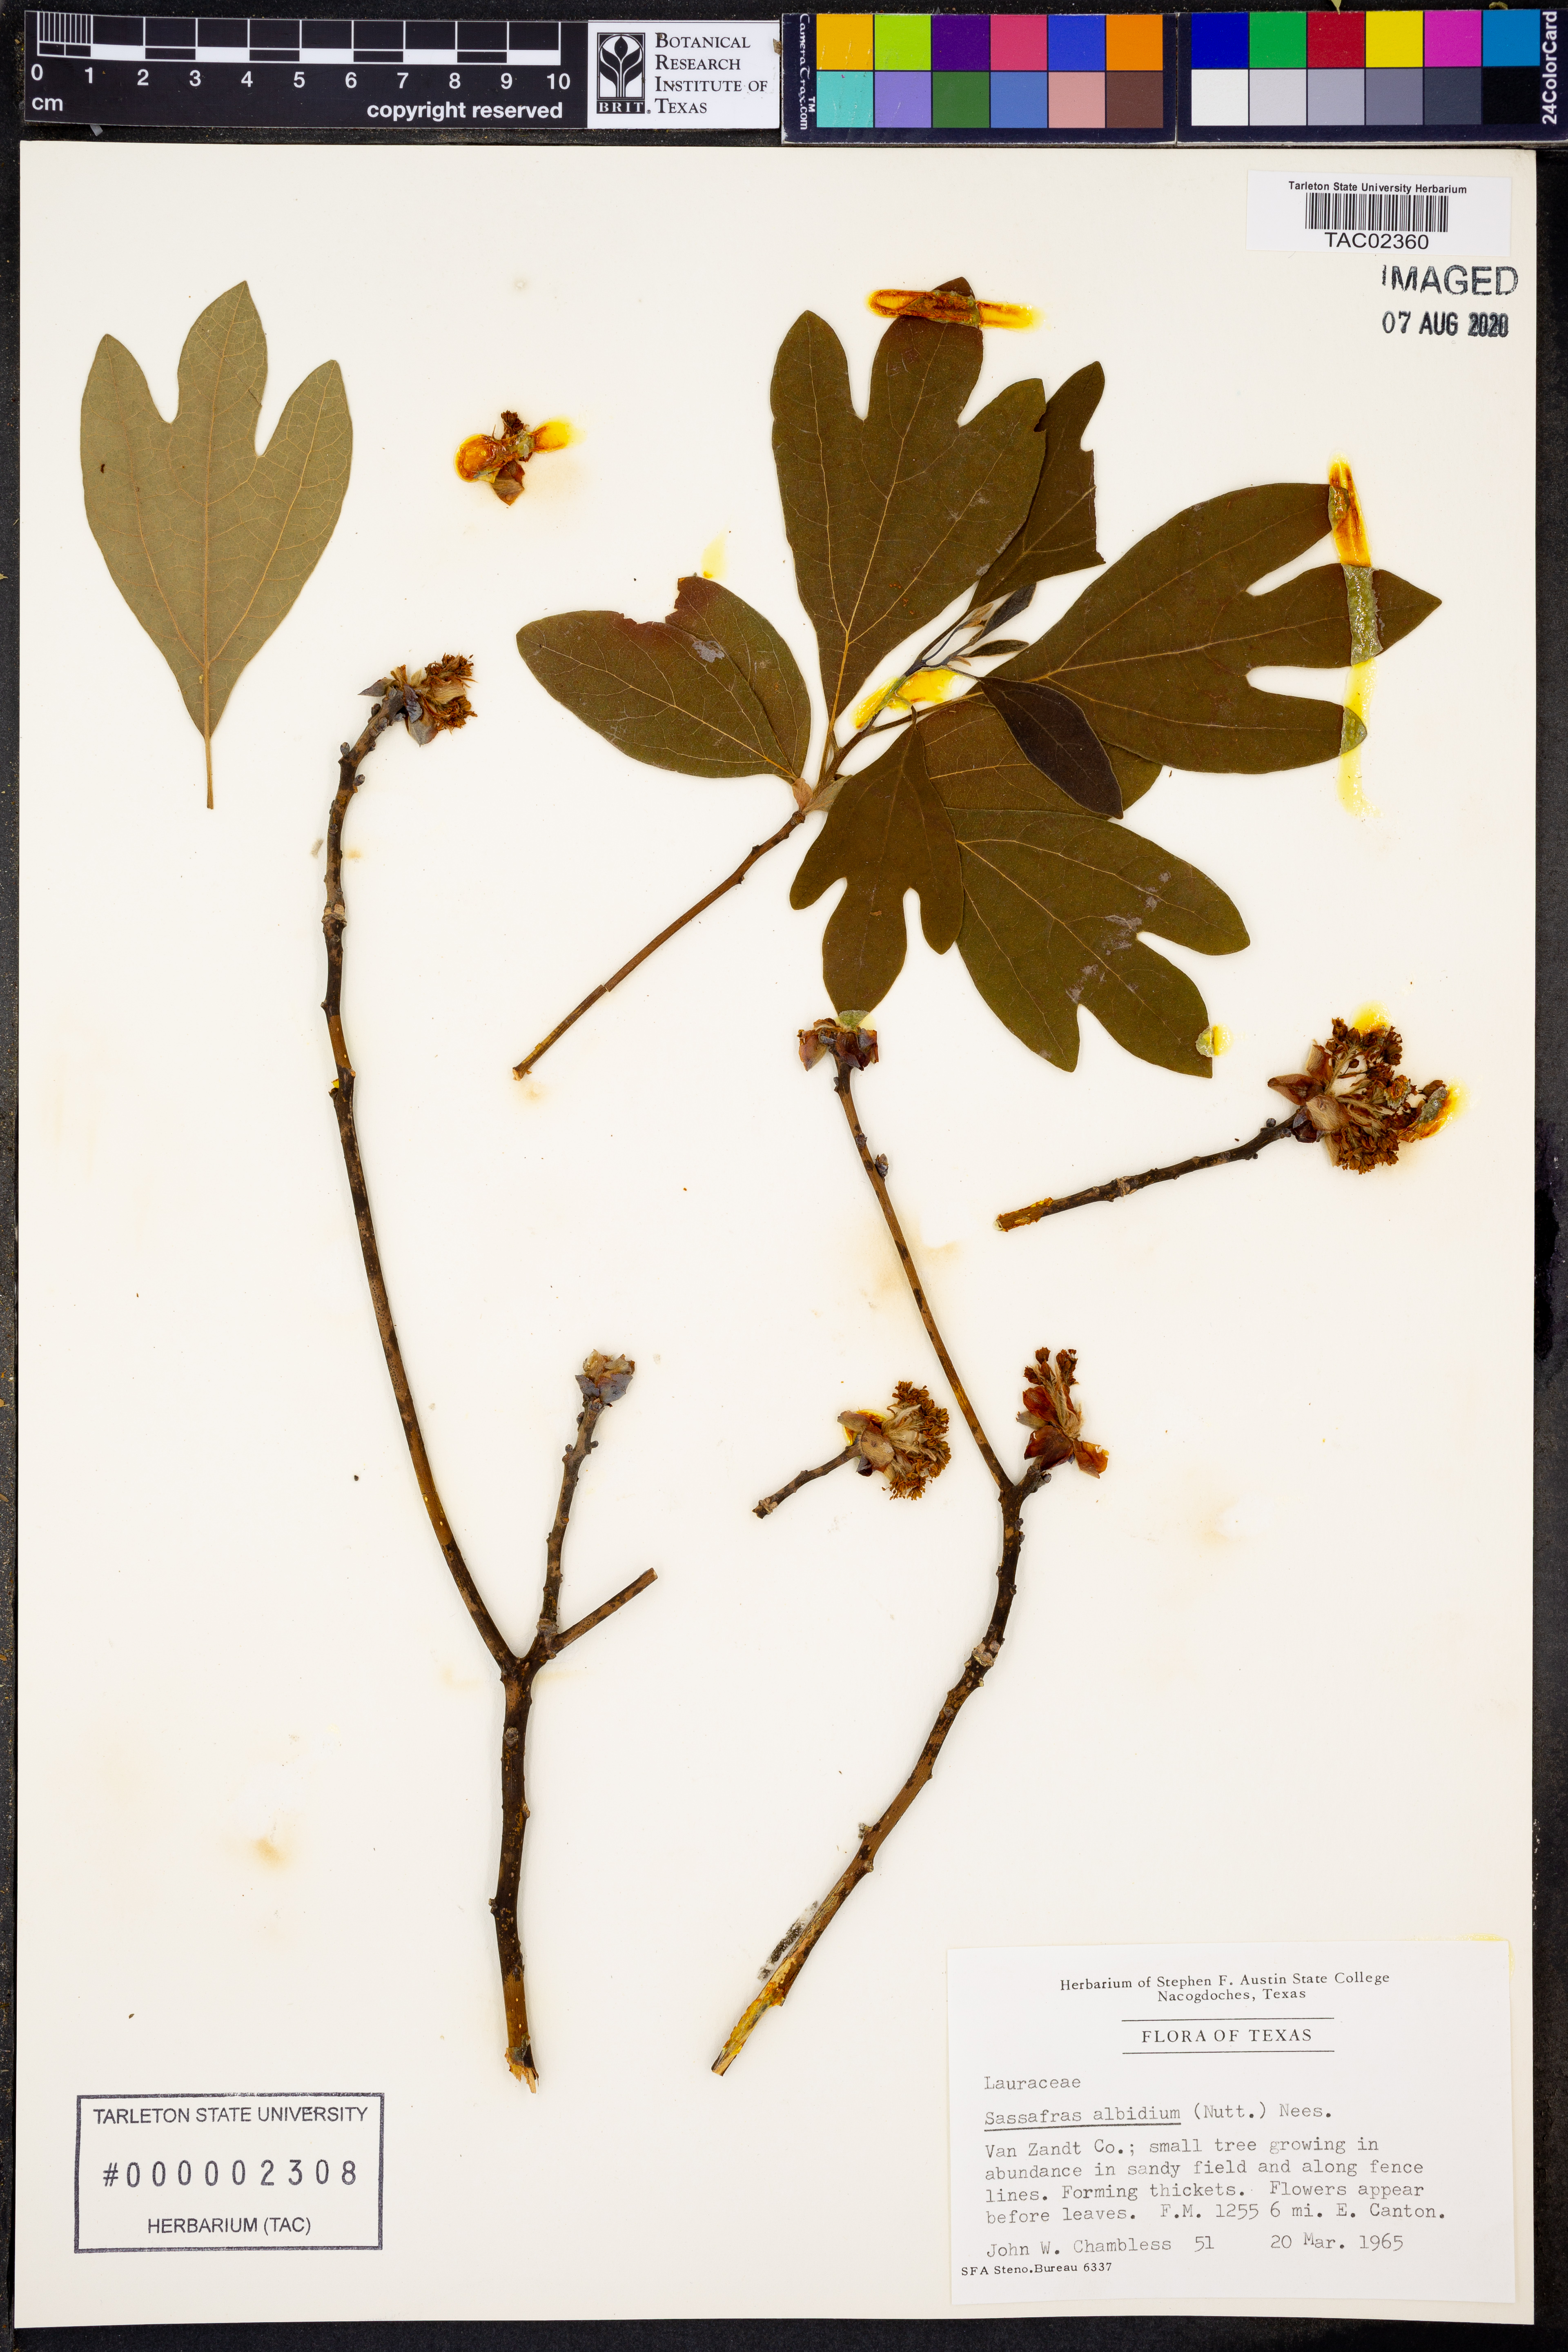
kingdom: Plantae
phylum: Tracheophyta
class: Magnoliopsida
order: Laurales
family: Lauraceae
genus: Sassafras
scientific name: Sassafras albidum
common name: Sassafras
